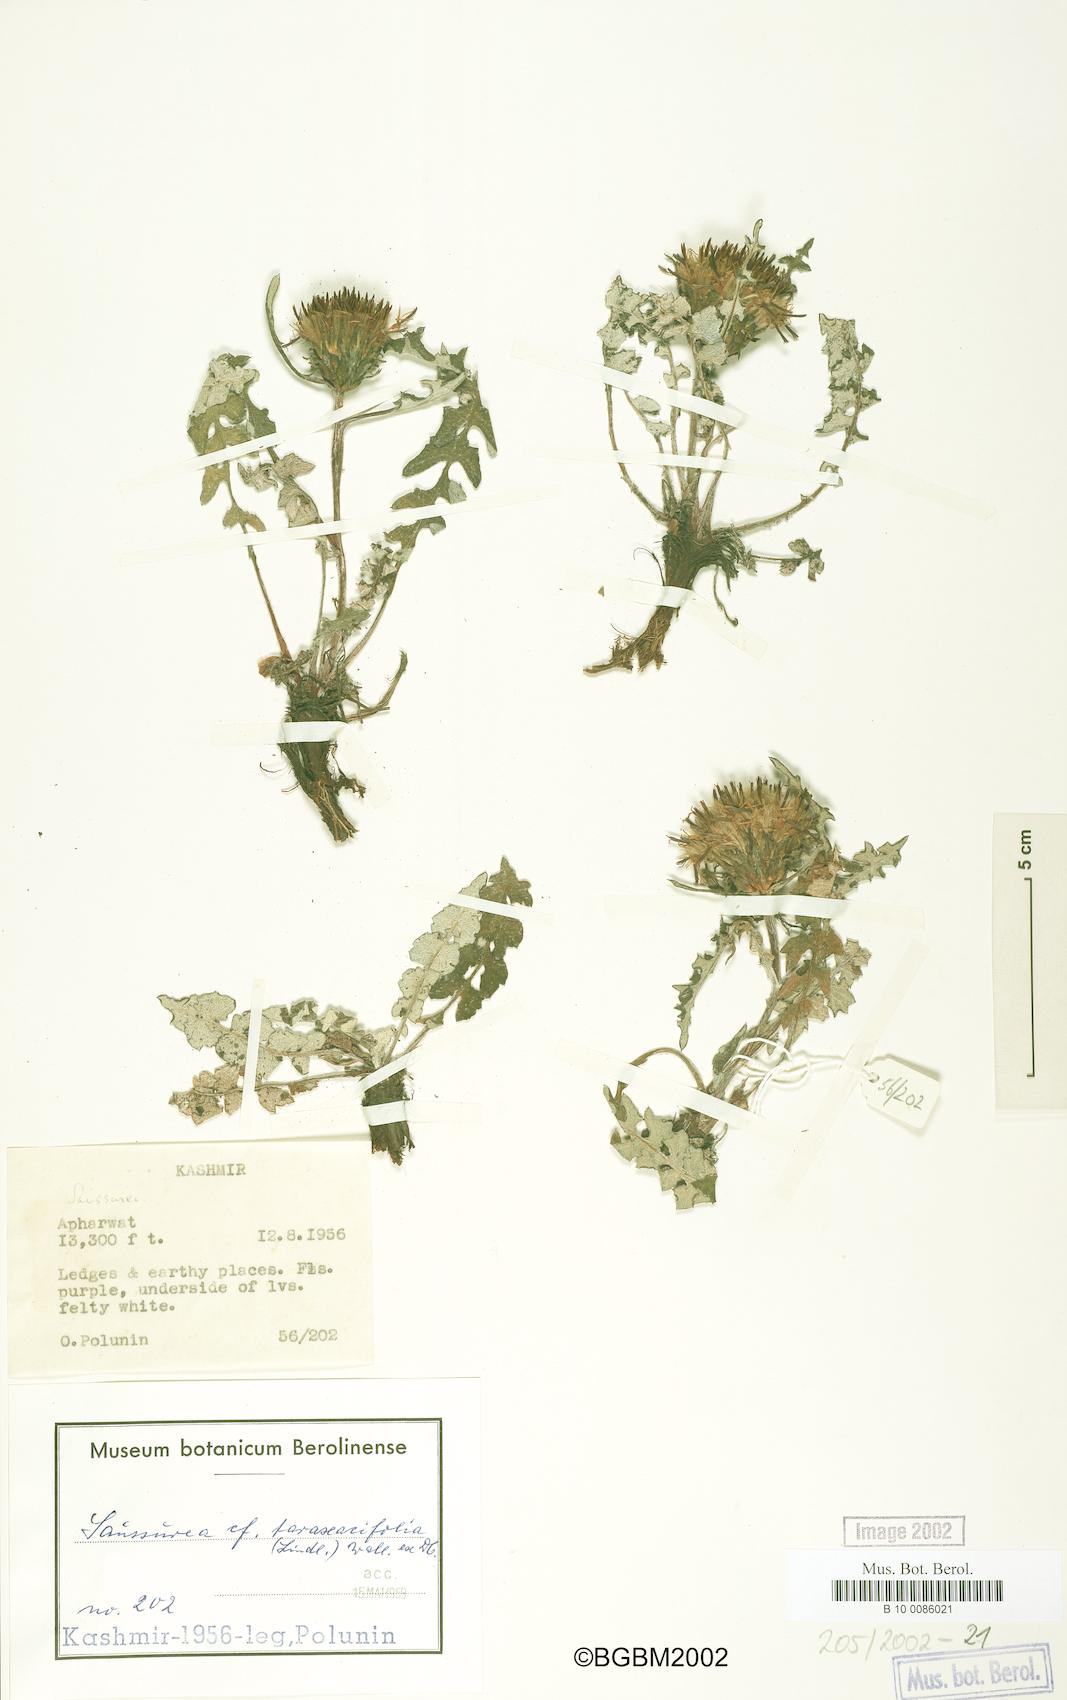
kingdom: Plantae
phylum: Tracheophyta
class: Magnoliopsida
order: Asterales
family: Asteraceae
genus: Saussurea
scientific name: Saussurea taraxacifolia
